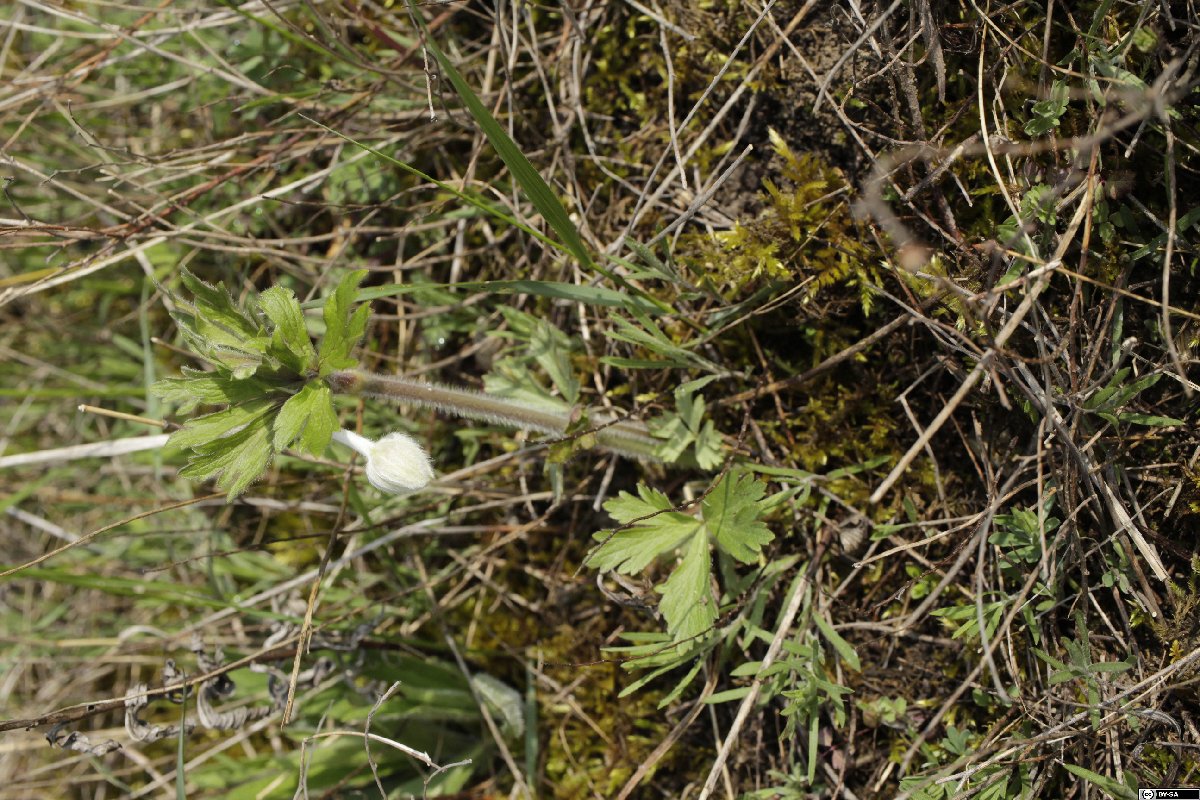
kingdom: Plantae
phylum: Tracheophyta
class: Magnoliopsida
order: Ranunculales
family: Ranunculaceae
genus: Anemone
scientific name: Anemone sylvestris
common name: Snowdrop anemone
